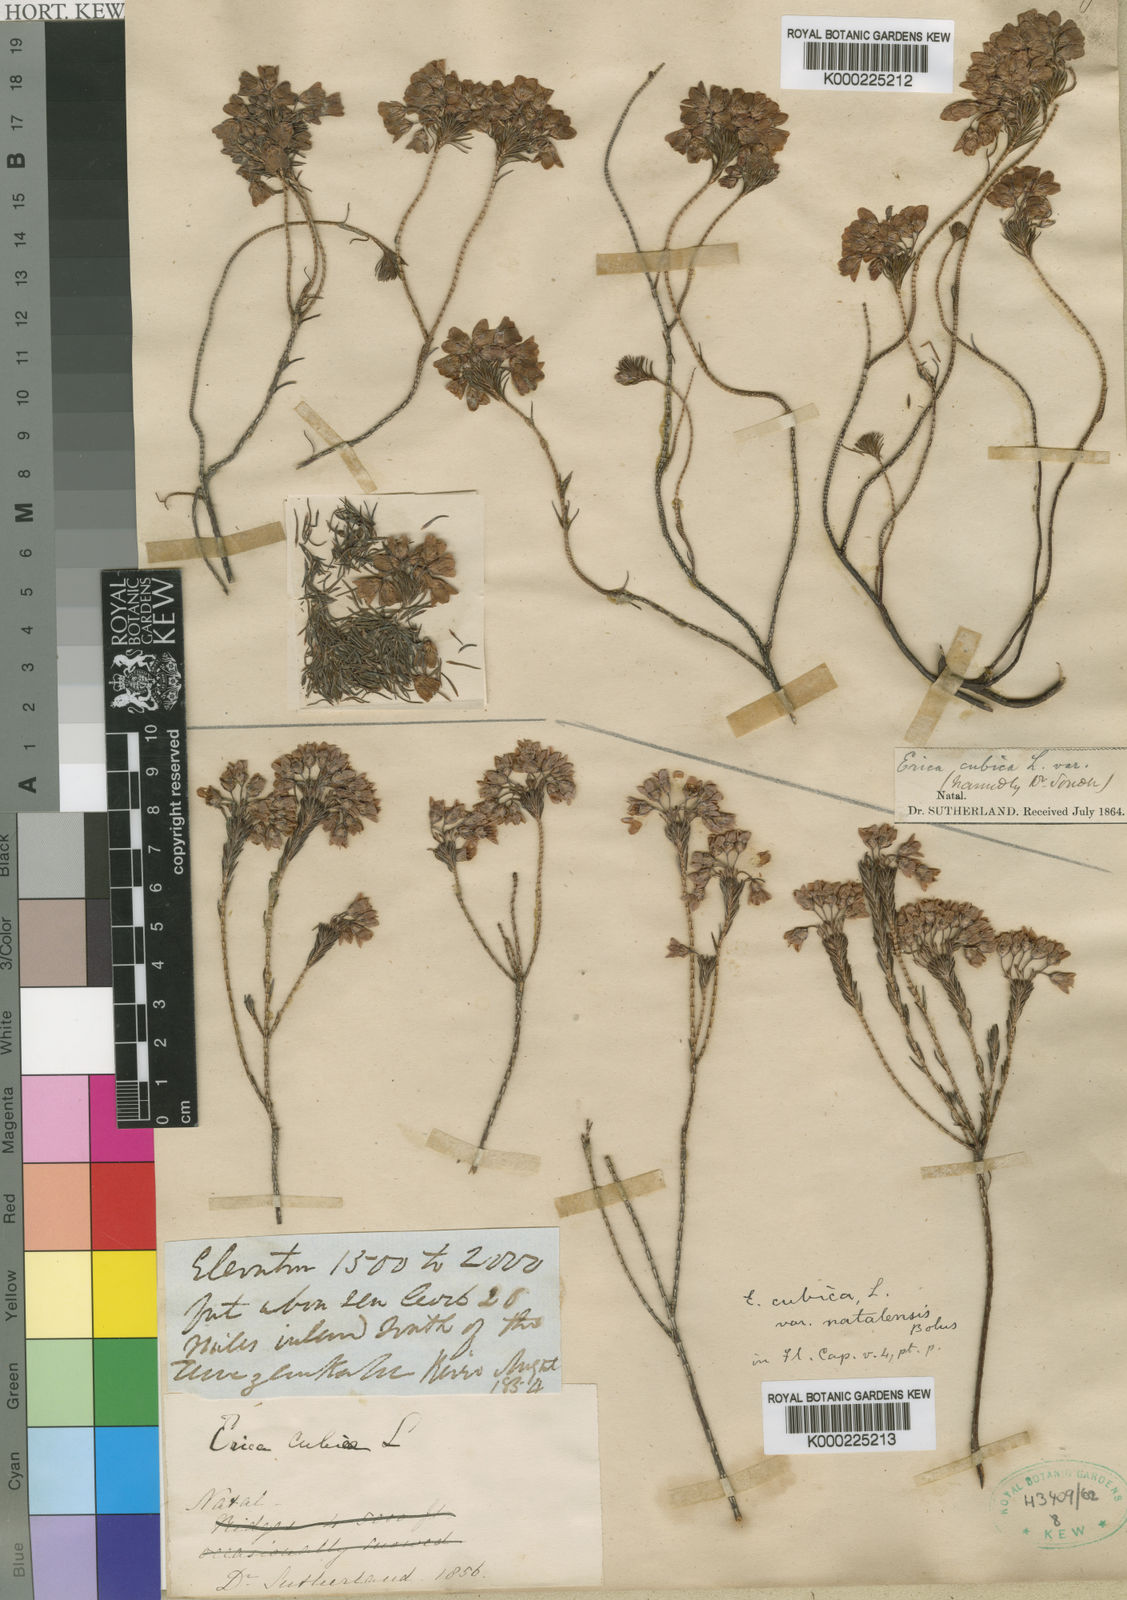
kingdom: Plantae
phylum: Tracheophyta
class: Magnoliopsida
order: Ericales
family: Ericaceae
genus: Erica
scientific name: Erica cubica
